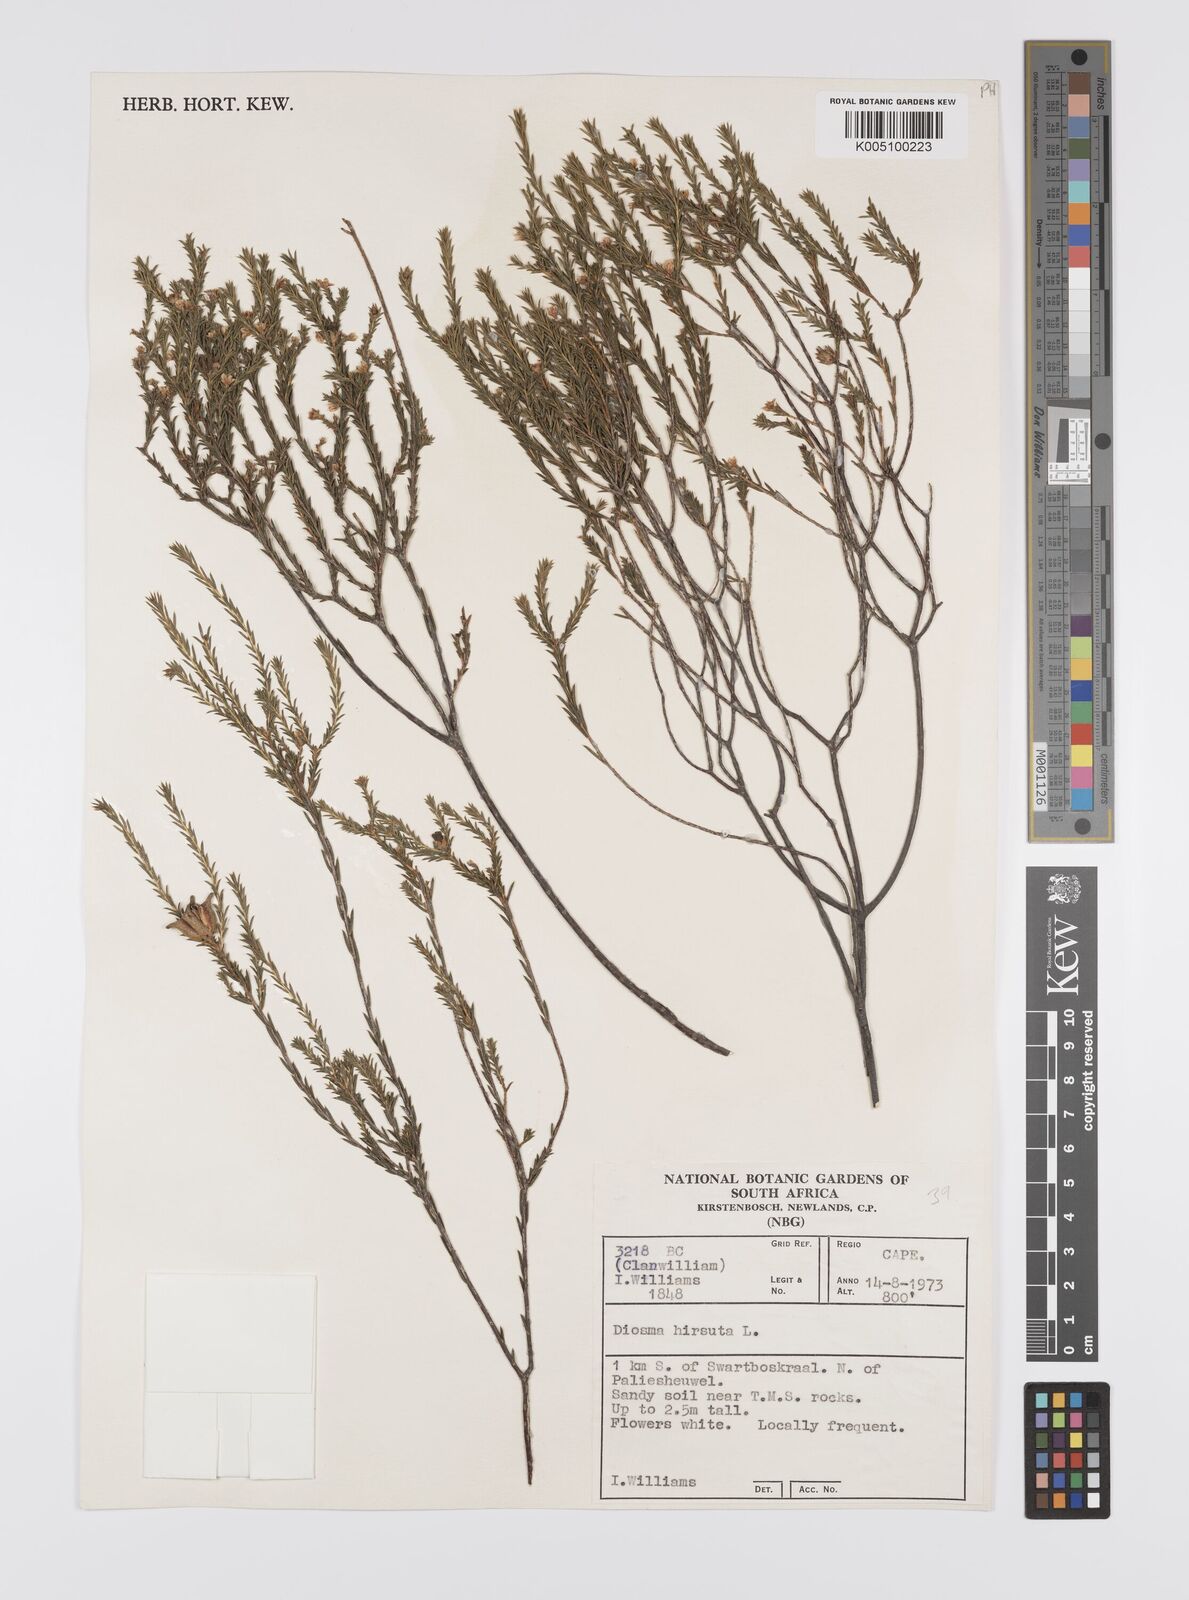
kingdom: Plantae
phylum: Tracheophyta
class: Magnoliopsida
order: Sapindales
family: Rutaceae
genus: Diosma
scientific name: Diosma hirsuta
